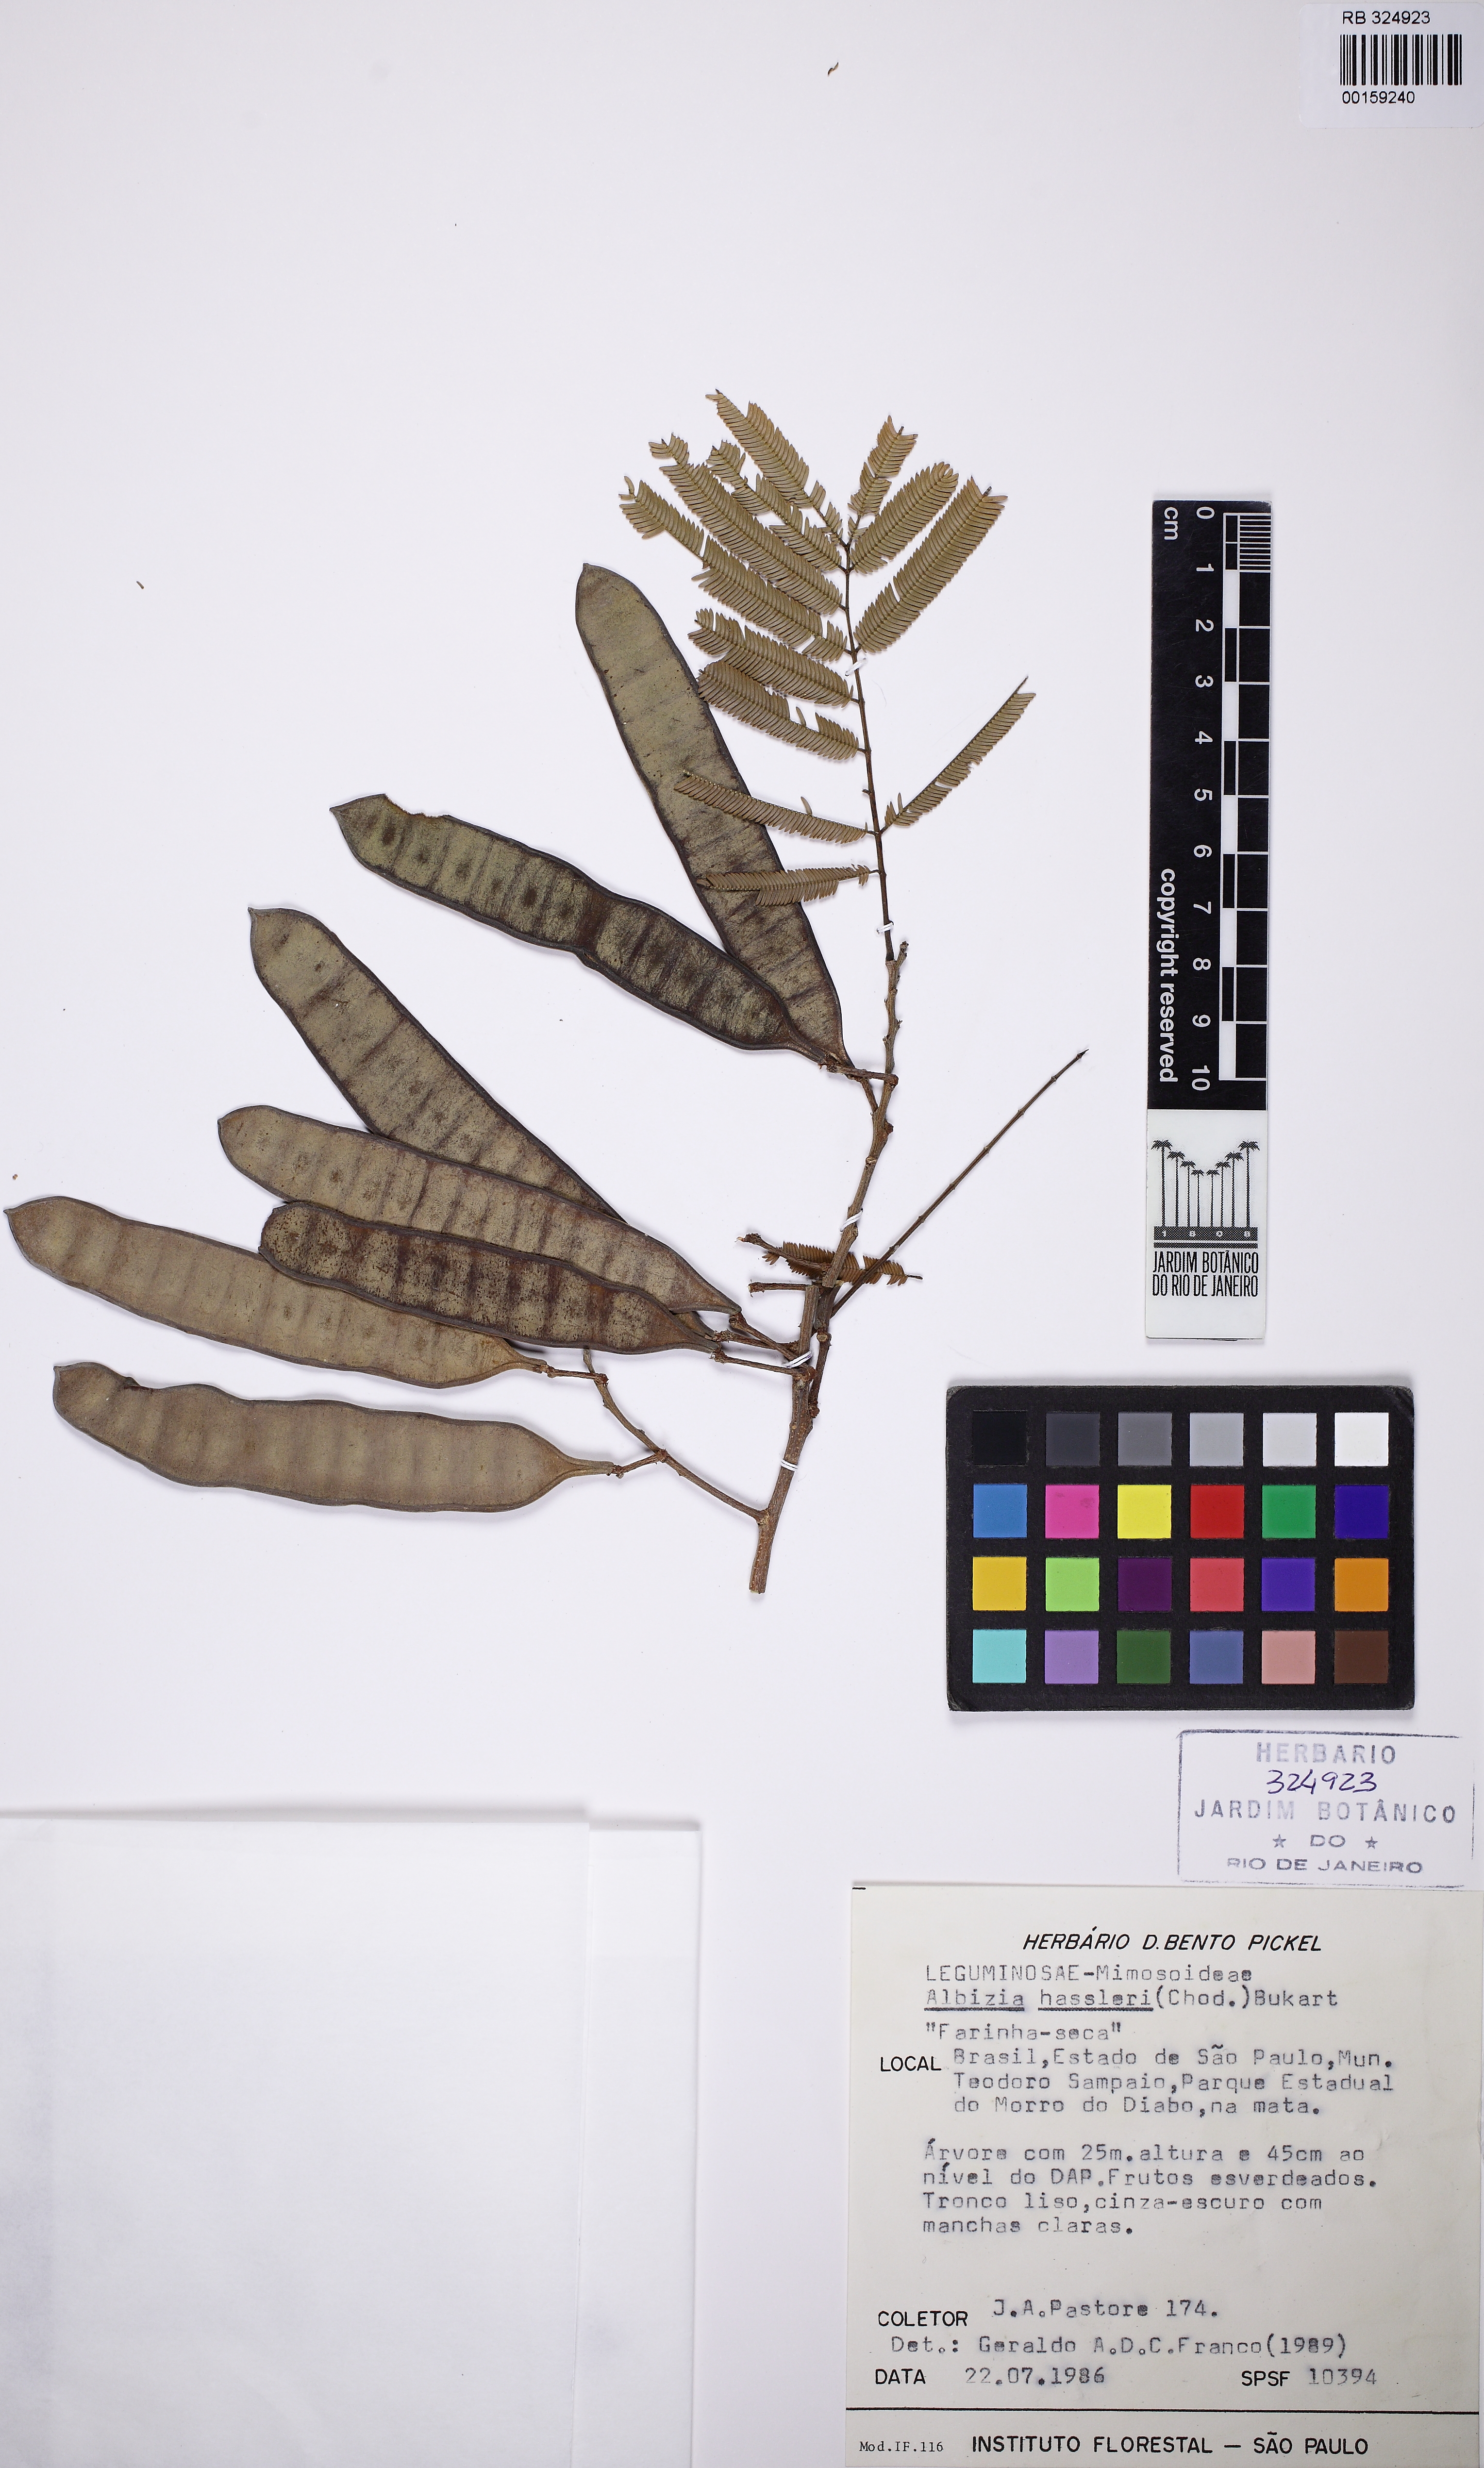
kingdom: Plantae
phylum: Tracheophyta
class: Magnoliopsida
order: Fabales
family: Fabaceae
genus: Albizia
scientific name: Albizia niopoides
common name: Silk tree
